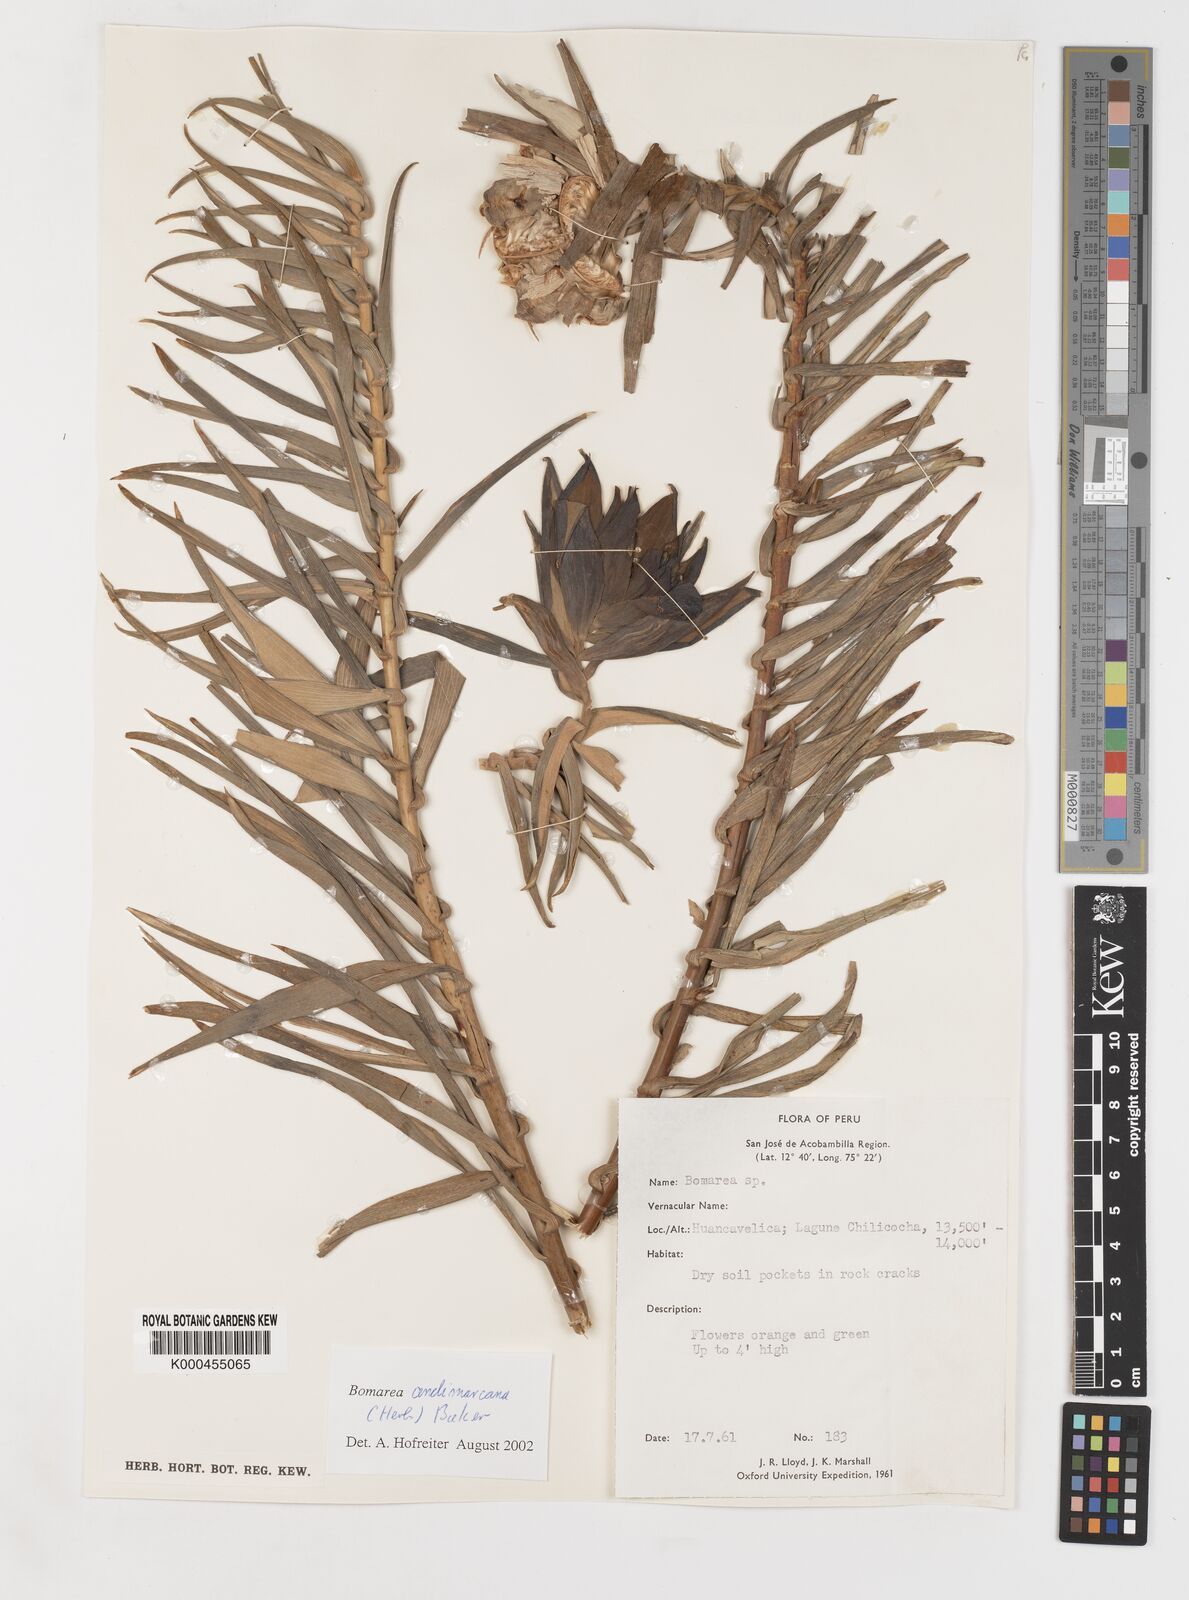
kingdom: Plantae
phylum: Tracheophyta
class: Liliopsida
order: Liliales
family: Alstroemeriaceae
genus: Bomarea
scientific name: Bomarea andimarcana
